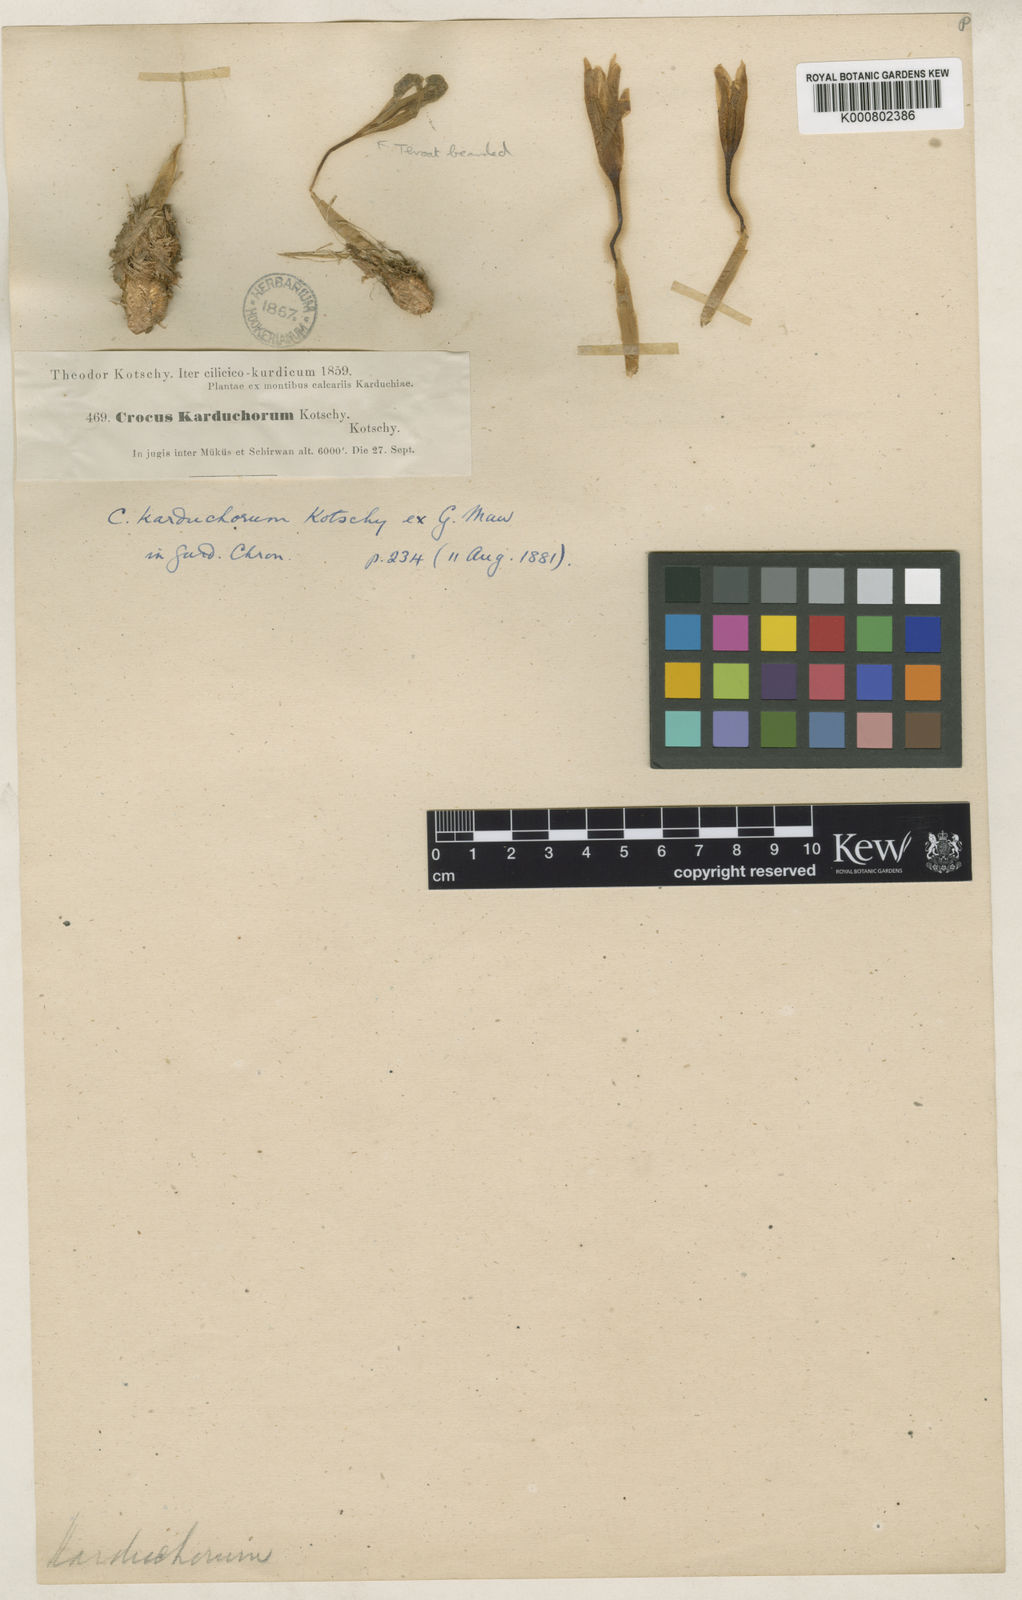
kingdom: Plantae
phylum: Tracheophyta
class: Liliopsida
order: Asparagales
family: Iridaceae
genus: Crocus
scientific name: Crocus karduchorum
